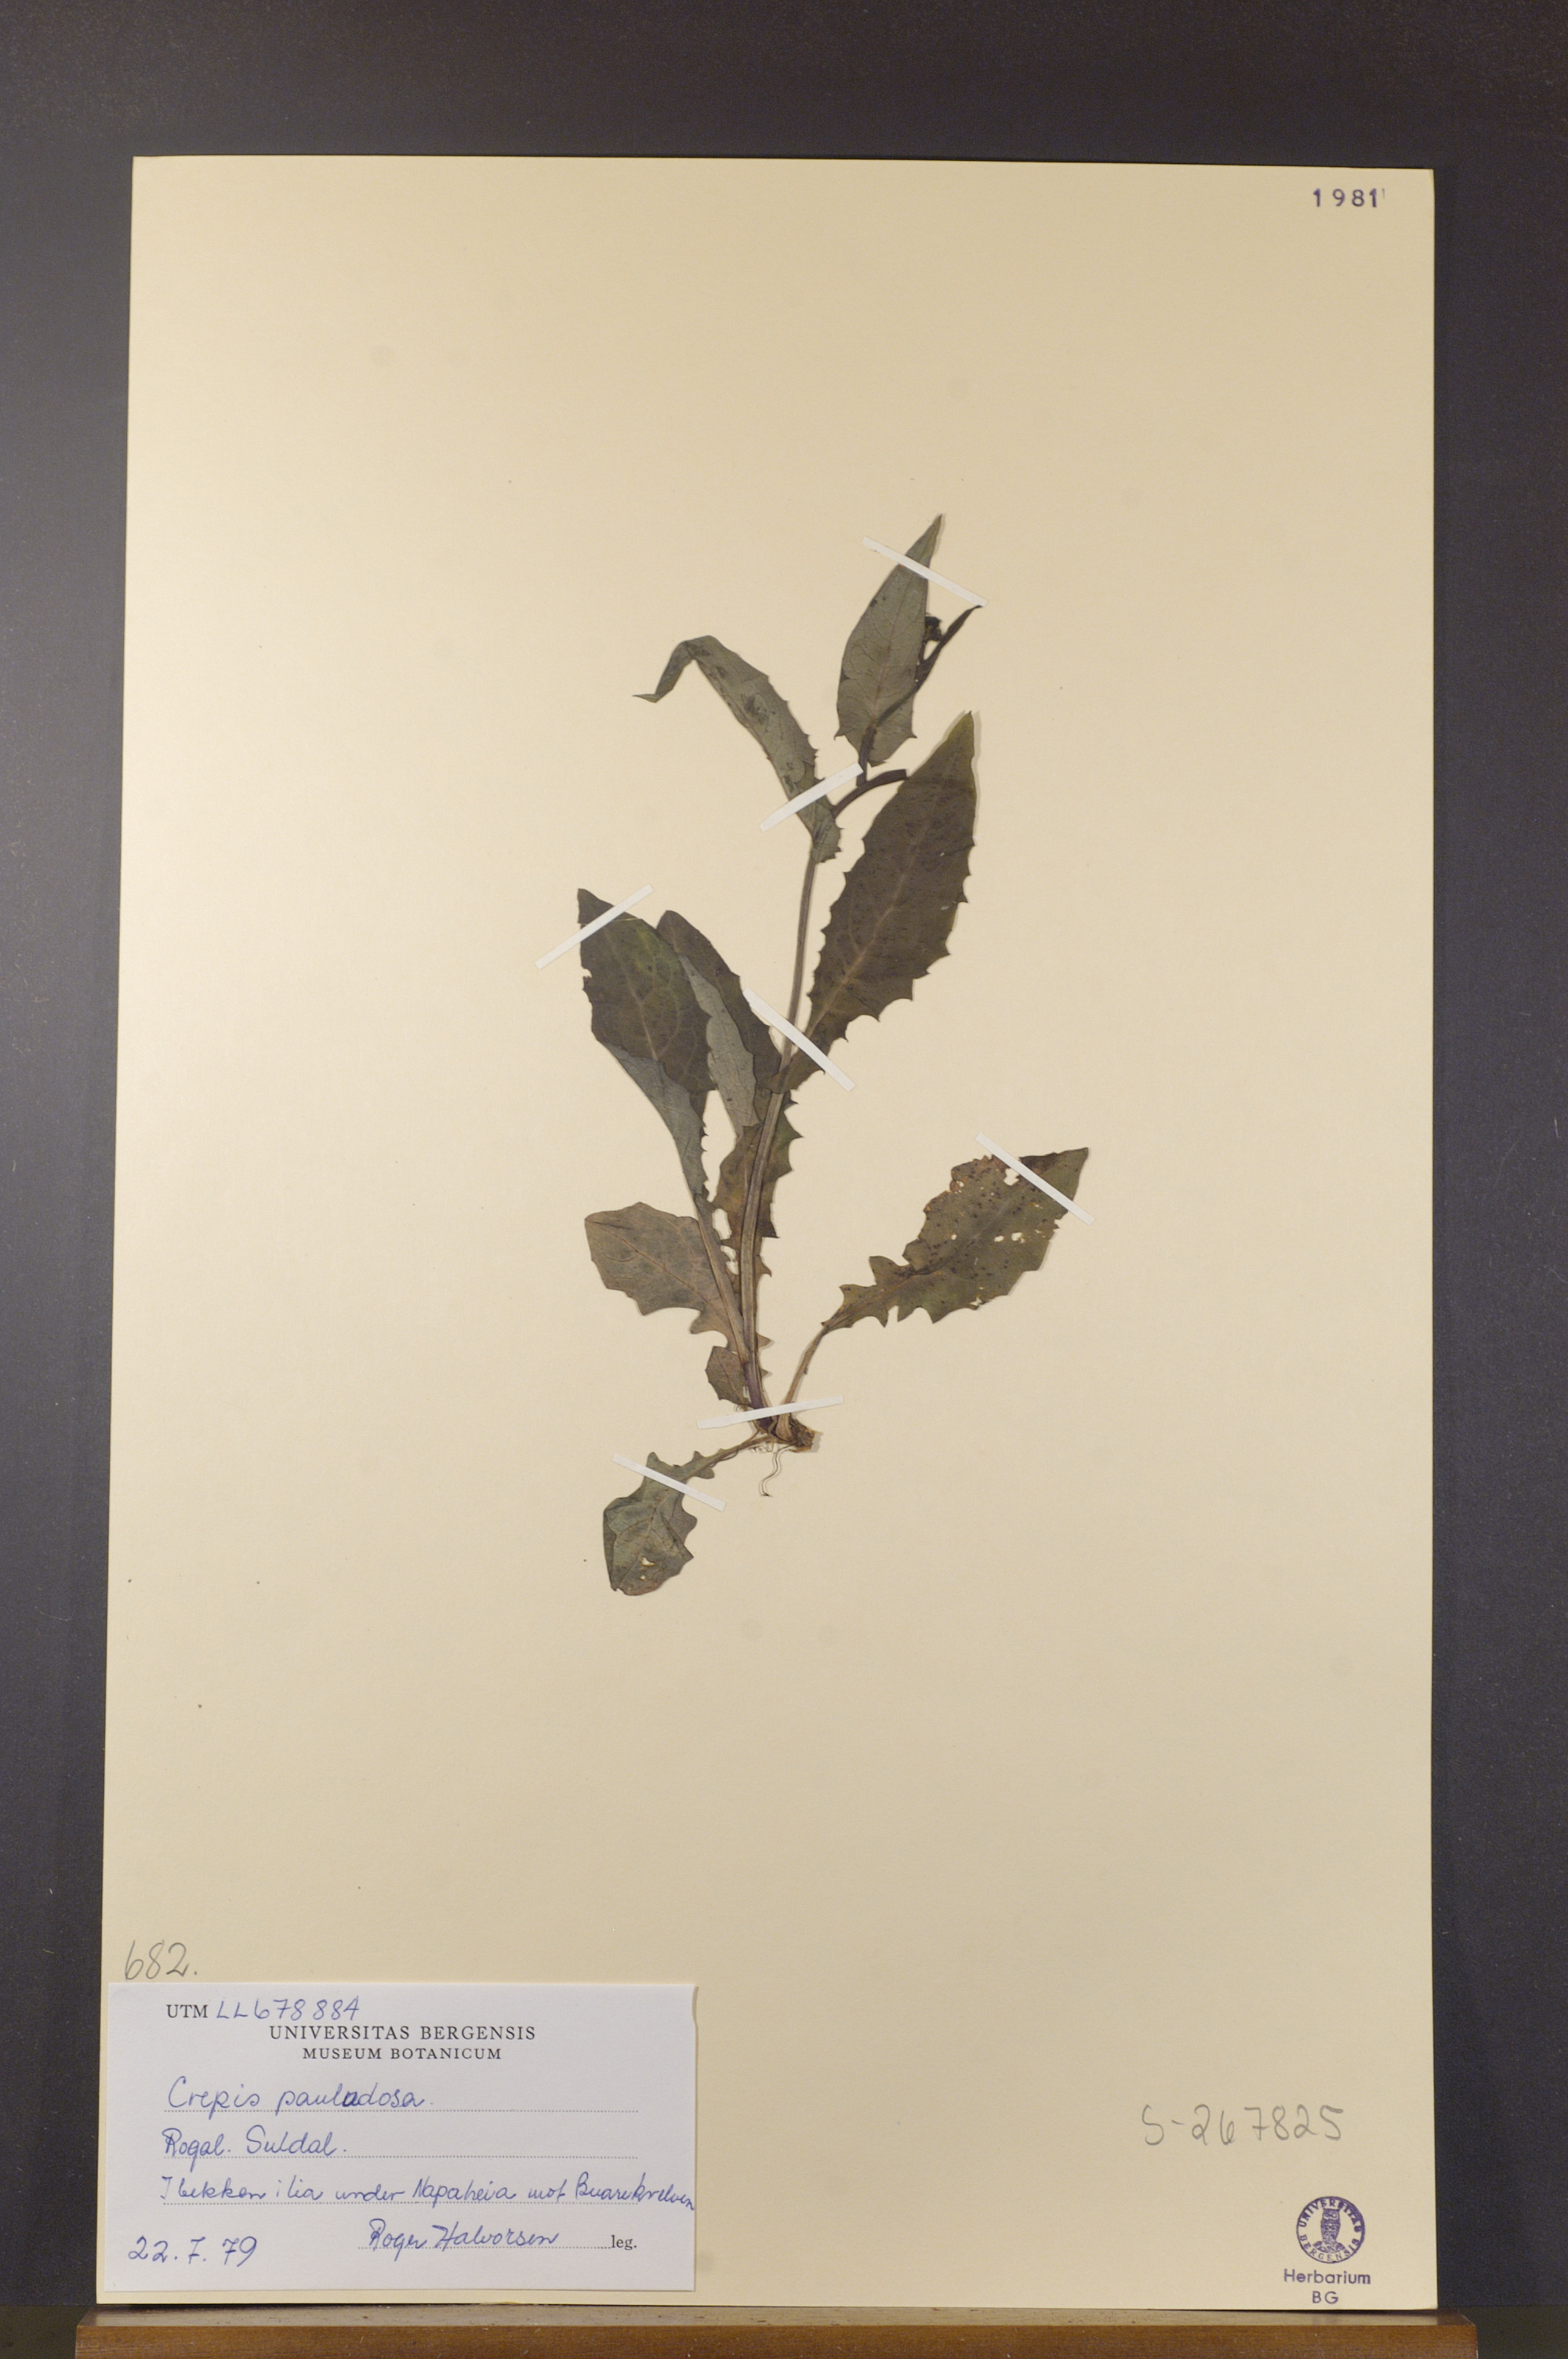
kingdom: Plantae
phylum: Tracheophyta
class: Magnoliopsida
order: Asterales
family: Asteraceae
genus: Crepis
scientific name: Crepis paludosa
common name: Marsh hawk's-beard
